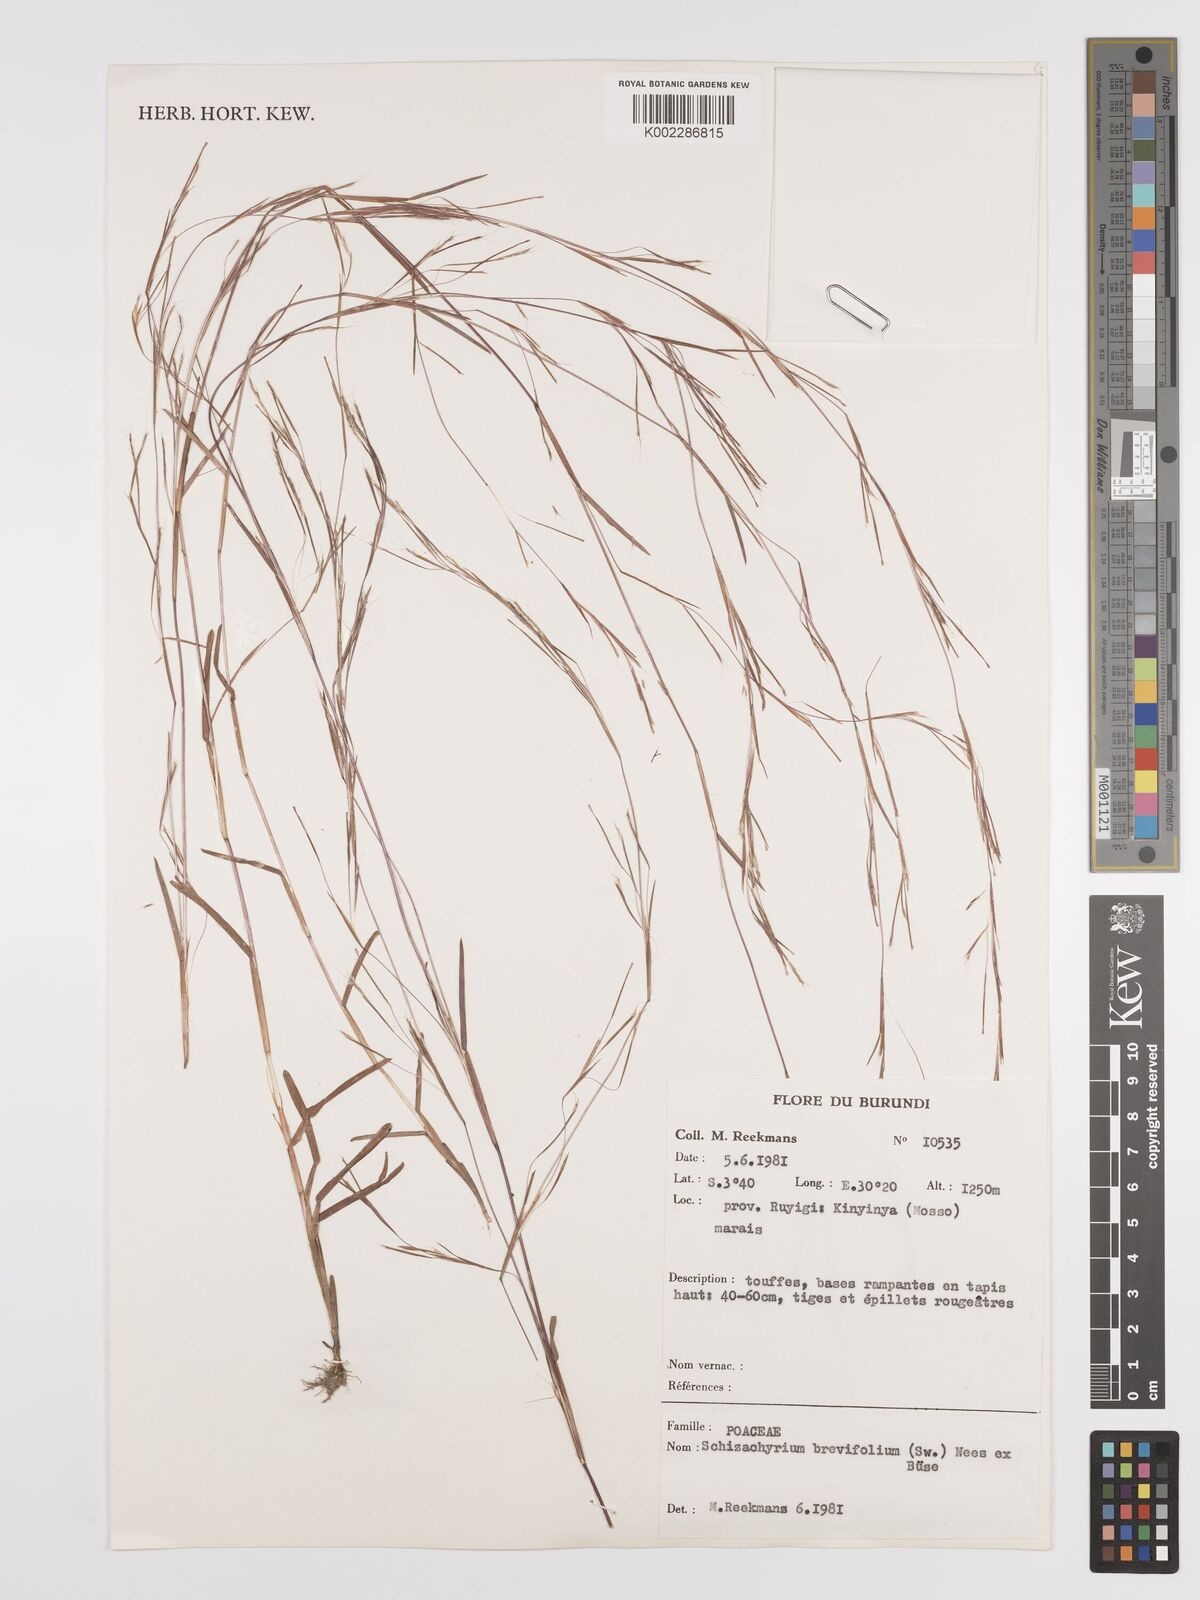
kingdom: Plantae
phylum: Tracheophyta
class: Liliopsida
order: Poales
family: Poaceae
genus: Schizachyrium
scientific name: Schizachyrium brevifolium
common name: Serillo dulce
